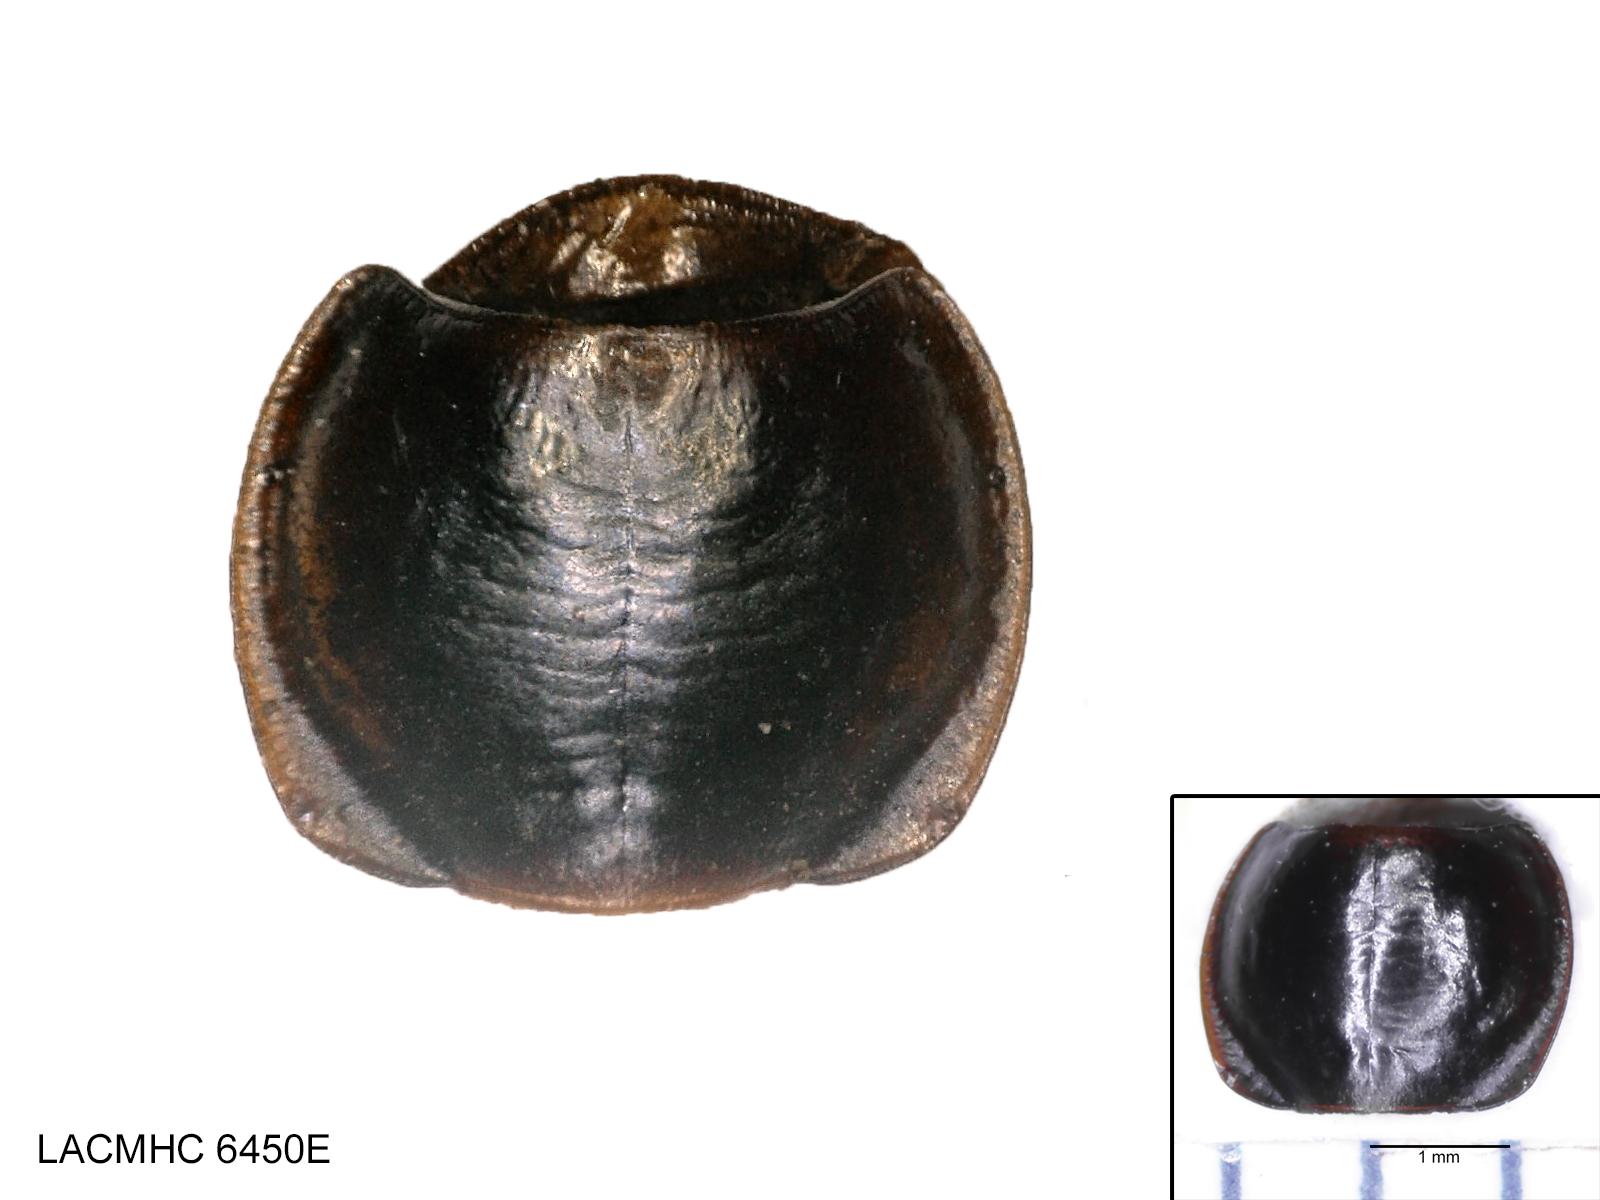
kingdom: Animalia
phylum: Arthropoda
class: Insecta
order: Coleoptera
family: Carabidae
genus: Tanystoma
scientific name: Tanystoma maculicolle
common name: Tule beetle
